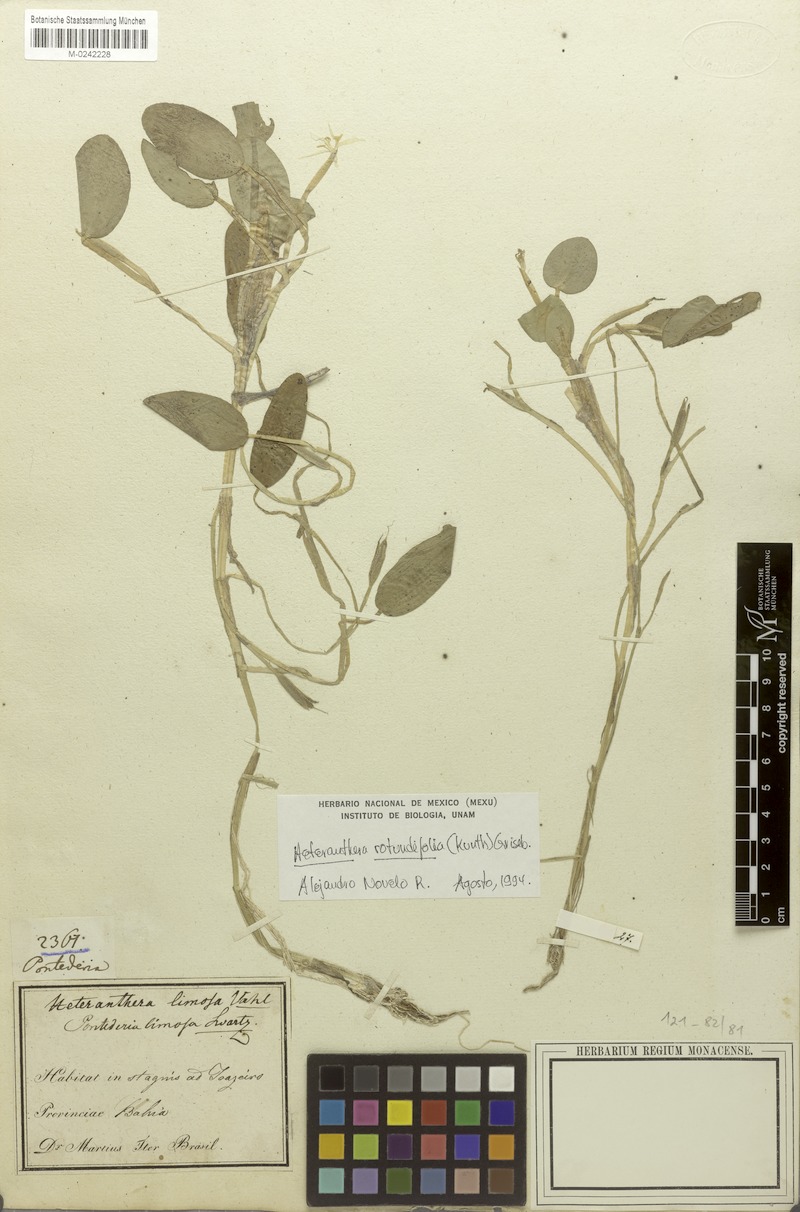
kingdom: Plantae
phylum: Tracheophyta
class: Liliopsida
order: Commelinales
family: Pontederiaceae
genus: Heteranthera
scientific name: Heteranthera rotundifolia
